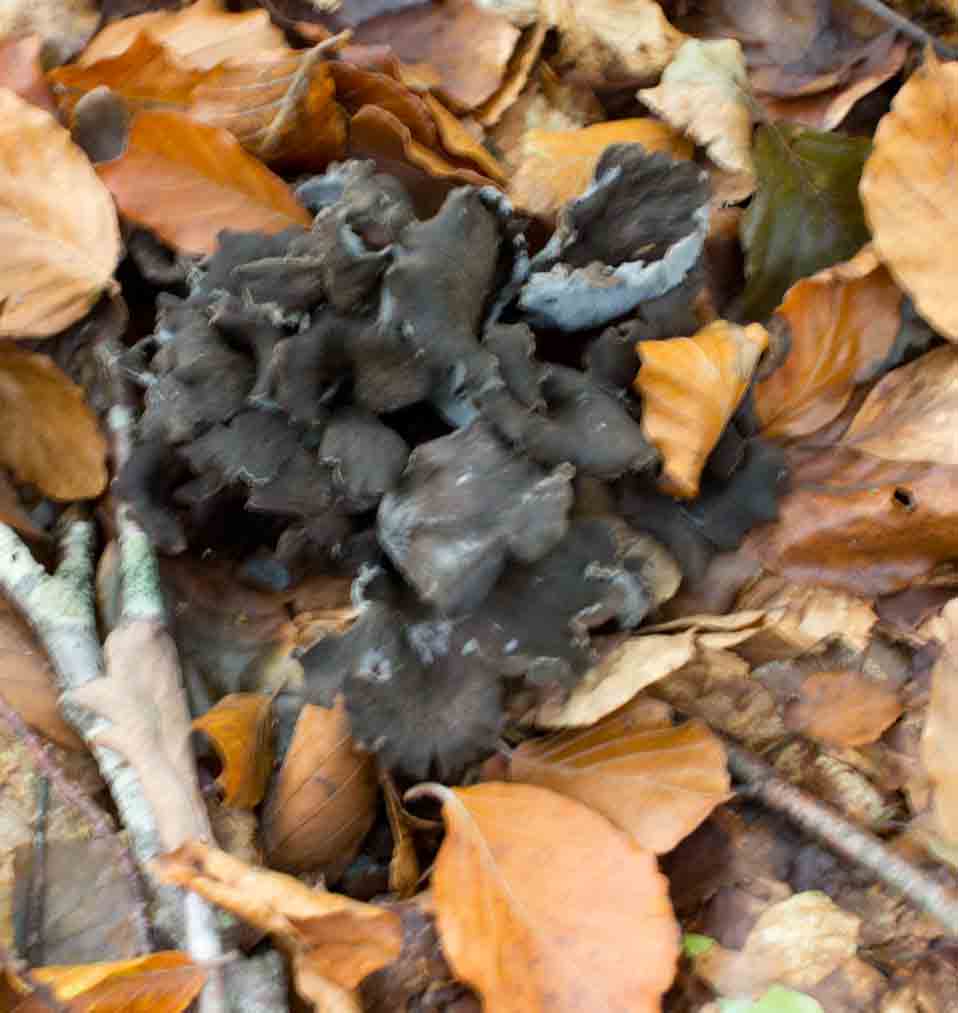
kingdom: Fungi
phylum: Basidiomycota
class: Agaricomycetes
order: Cantharellales
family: Hydnaceae
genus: Craterellus
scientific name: Craterellus cornucopioides
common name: trompetsvamp
